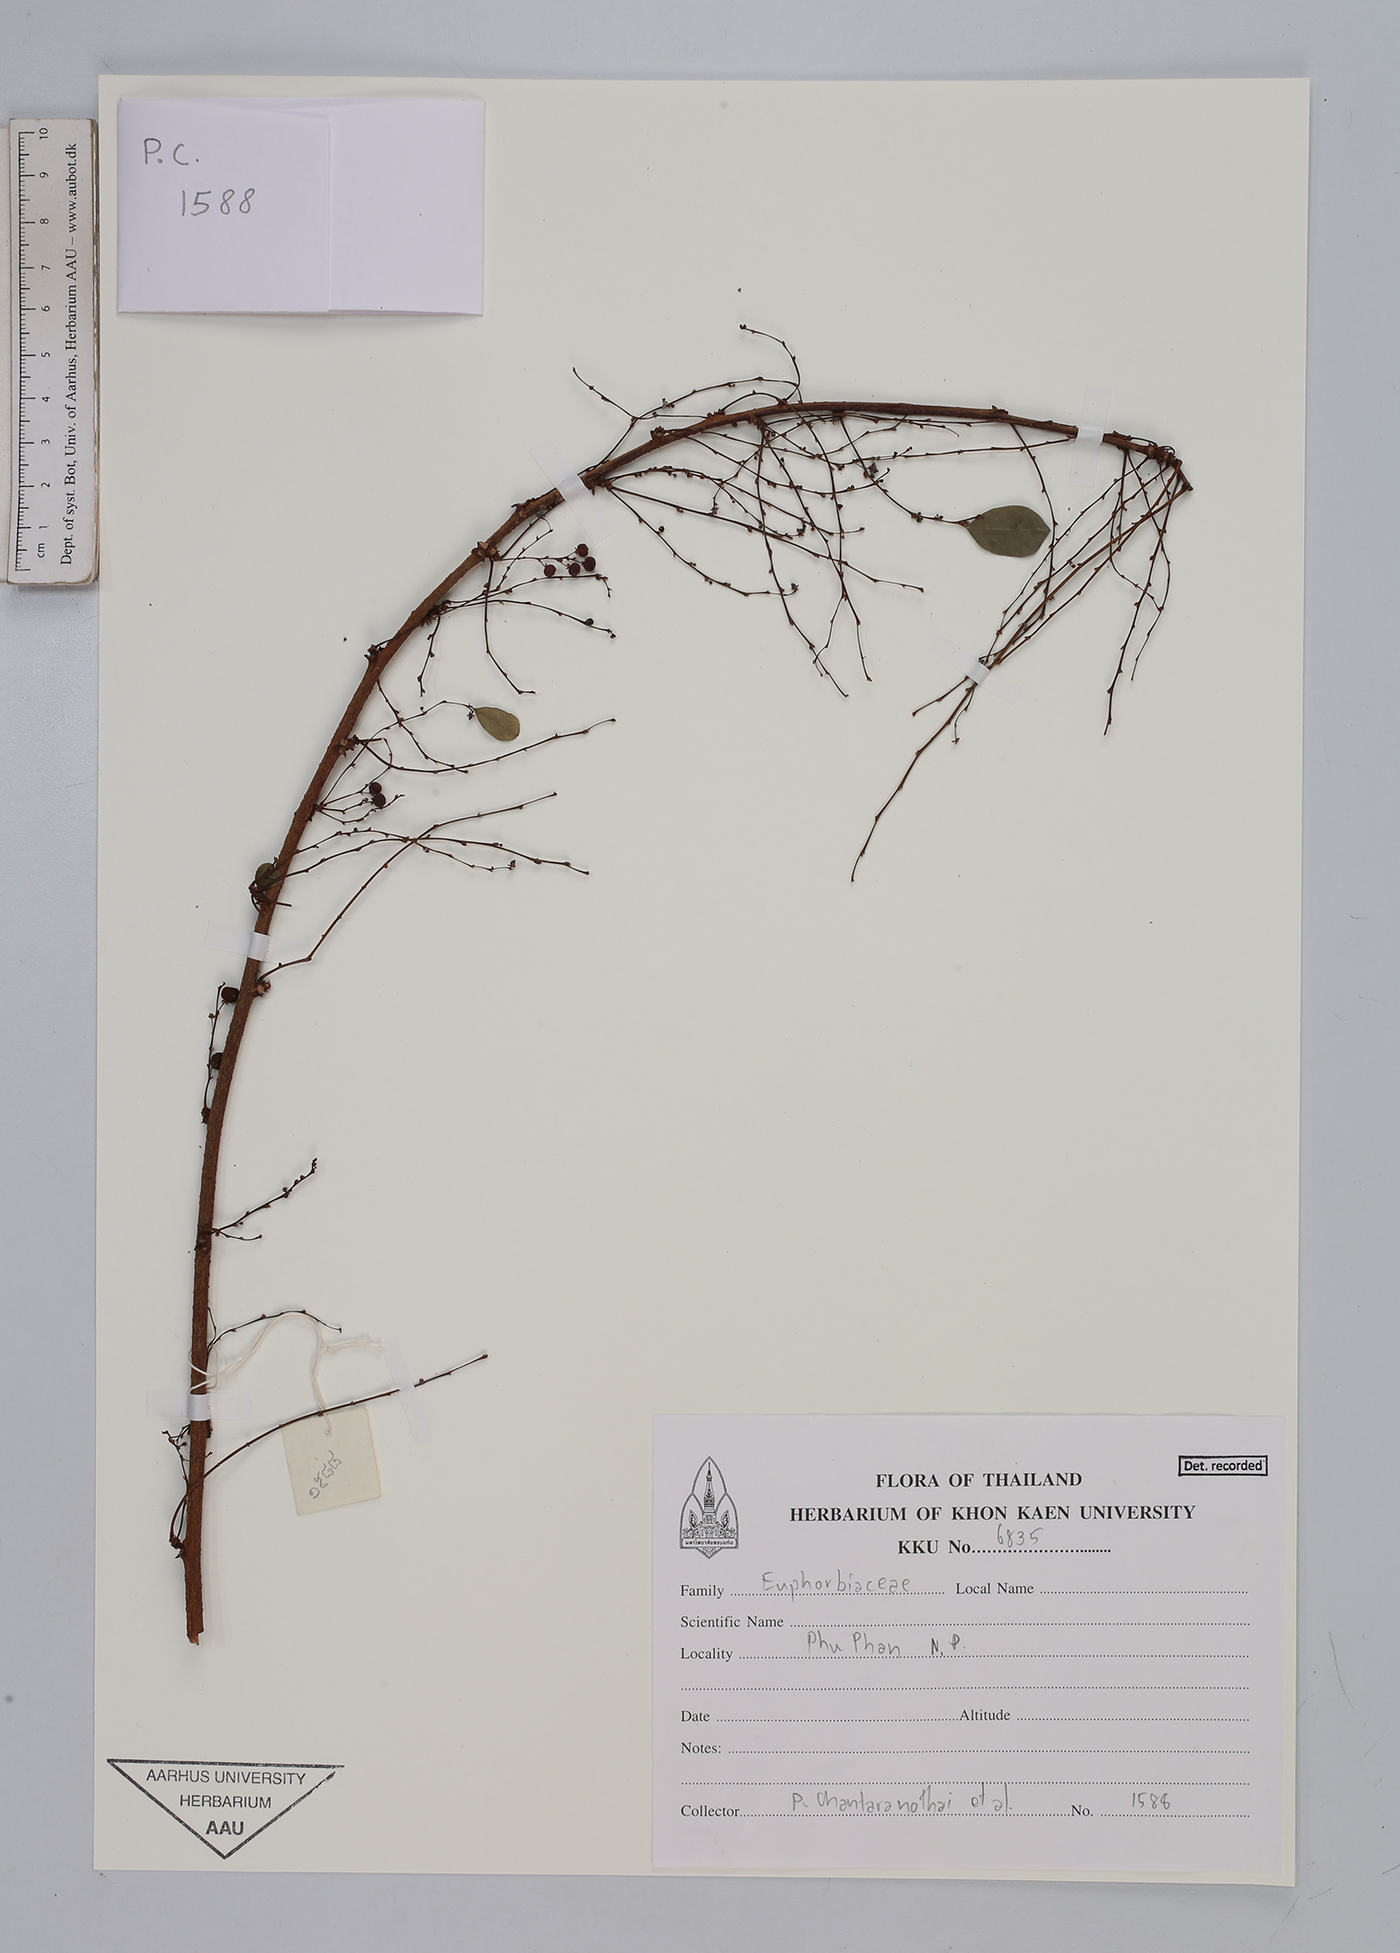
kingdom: Plantae
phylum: Tracheophyta
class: Magnoliopsida
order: Malpighiales
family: Euphorbiaceae
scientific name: Euphorbiaceae
